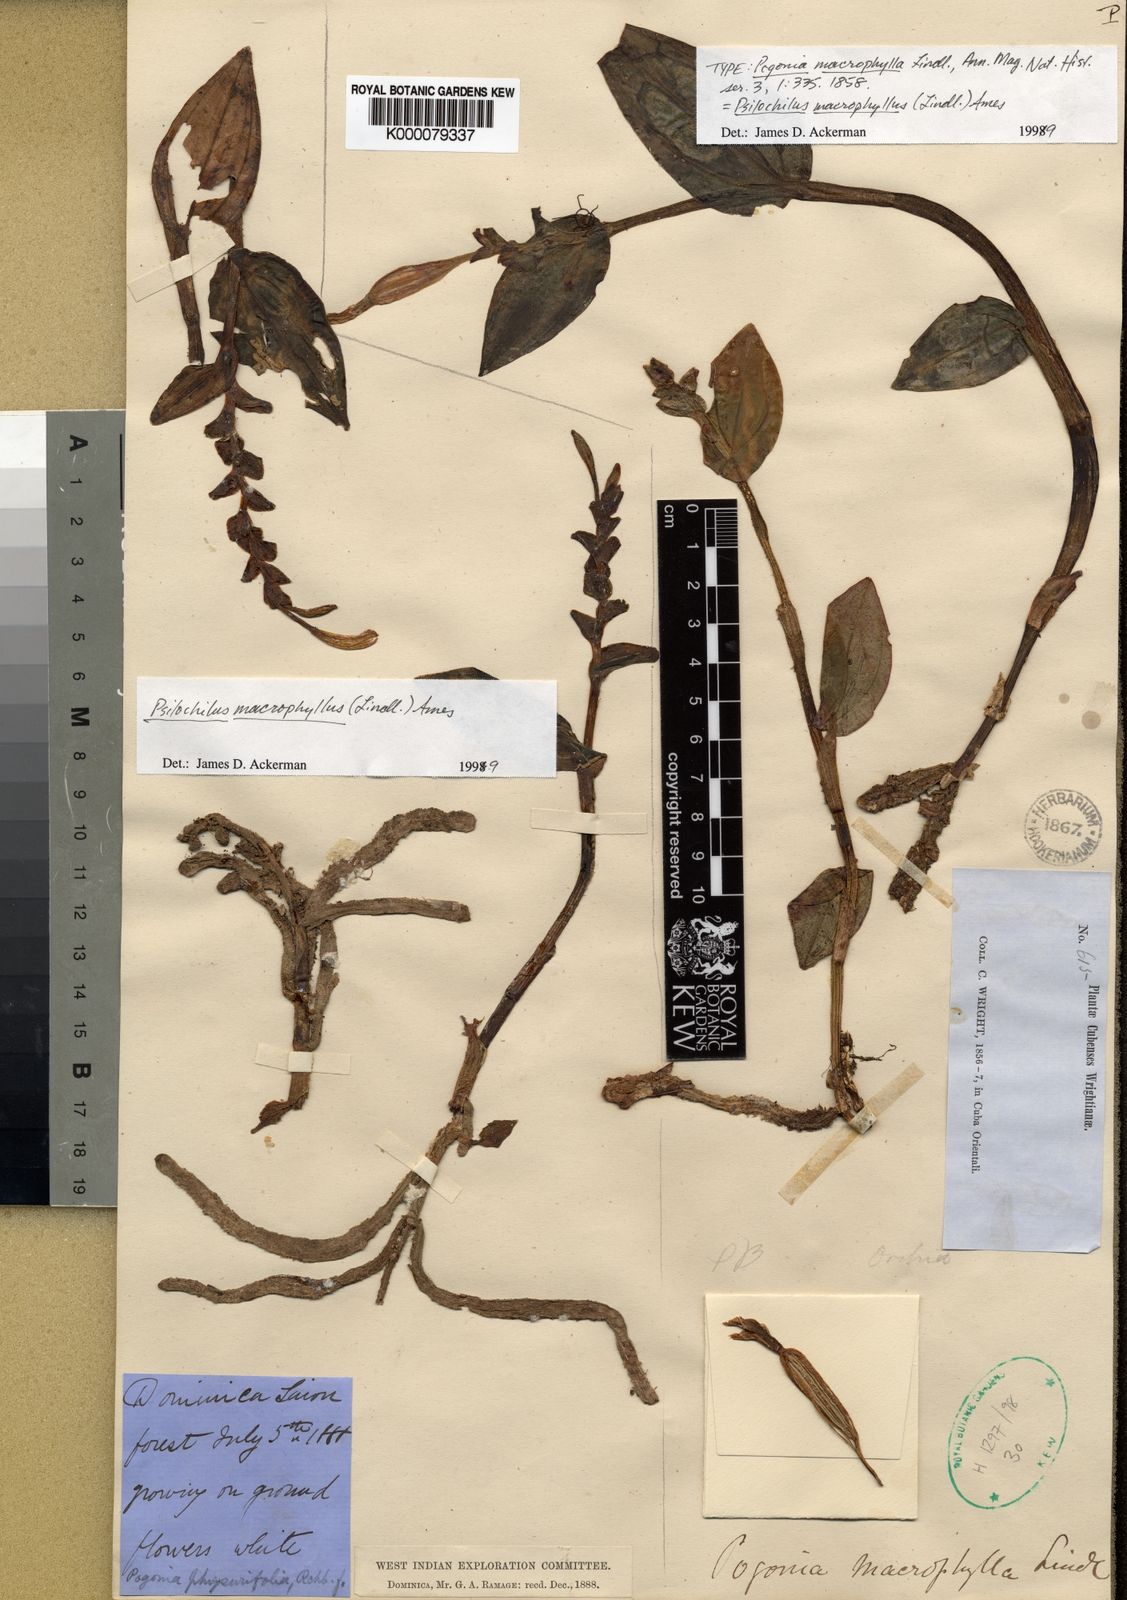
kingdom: Plantae
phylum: Tracheophyta
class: Liliopsida
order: Asparagales
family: Orchidaceae
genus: Psilochilus
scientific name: Psilochilus macrophyllus
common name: Raggedlip orchid
